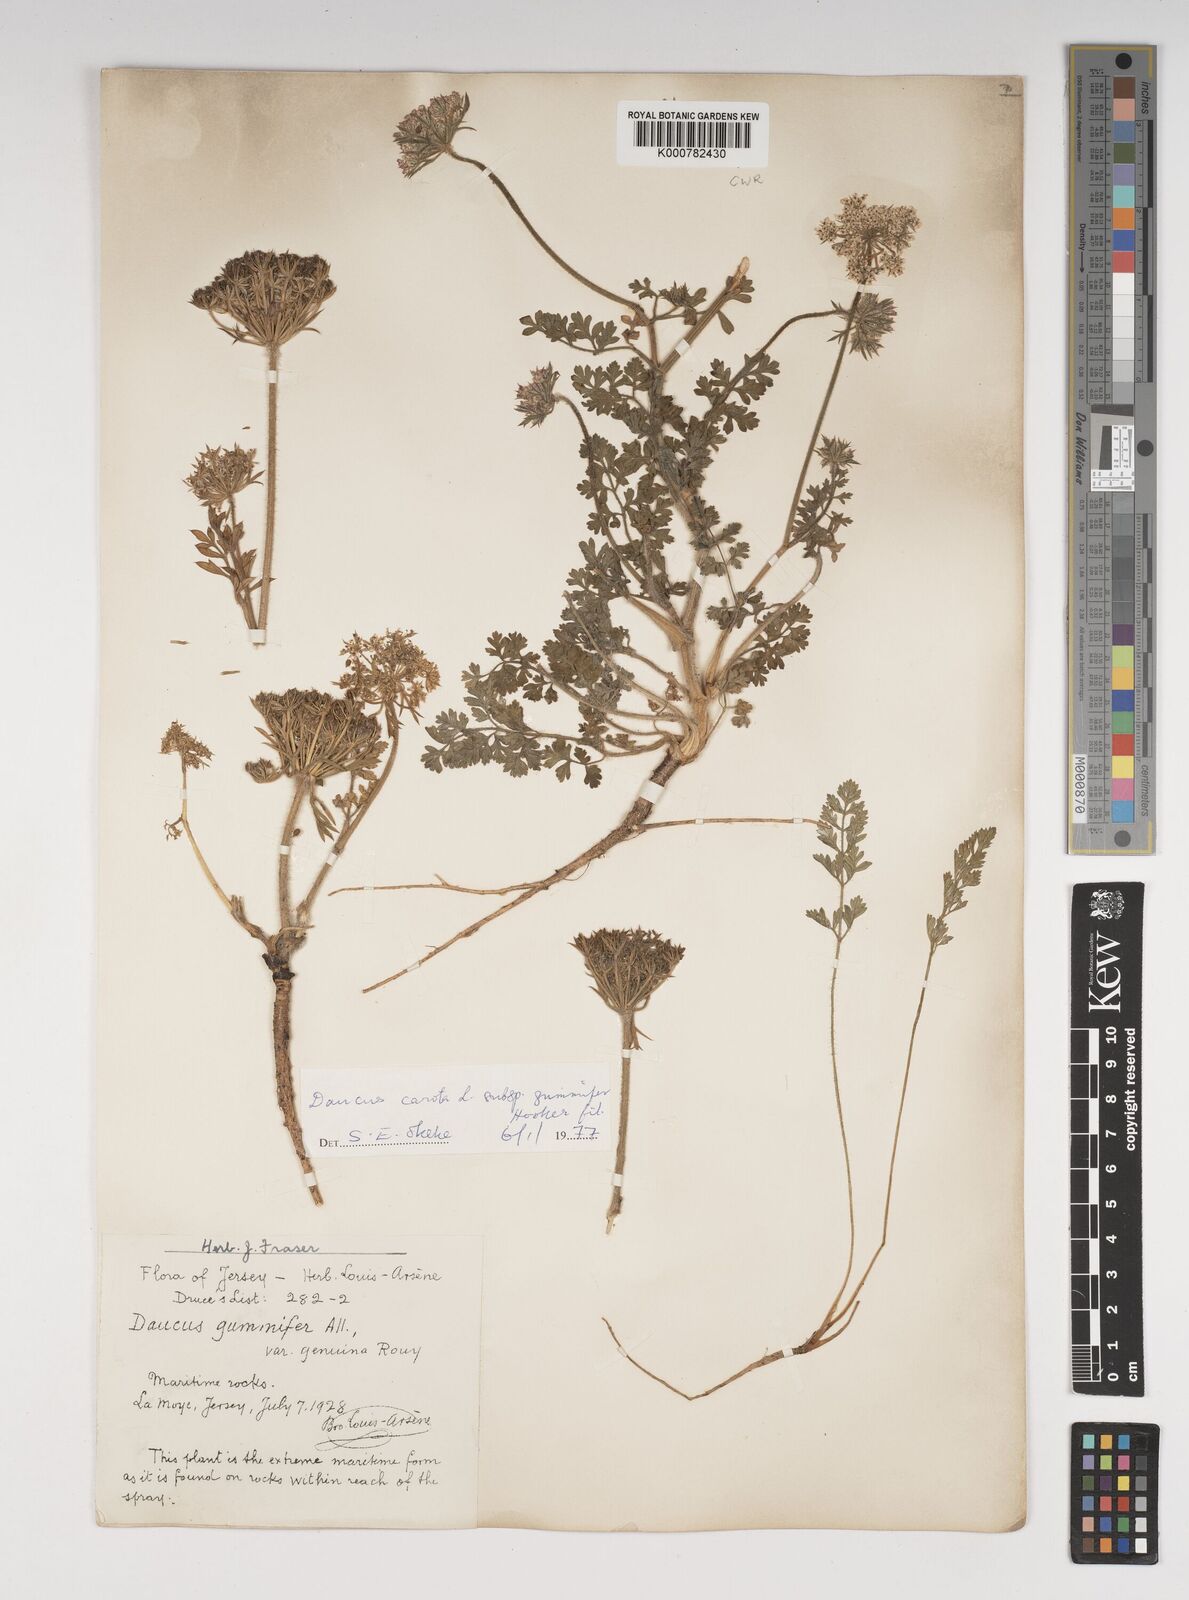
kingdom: Plantae
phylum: Tracheophyta
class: Magnoliopsida
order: Apiales
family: Apiaceae
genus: Daucus
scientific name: Daucus carota
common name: Wild carrot
